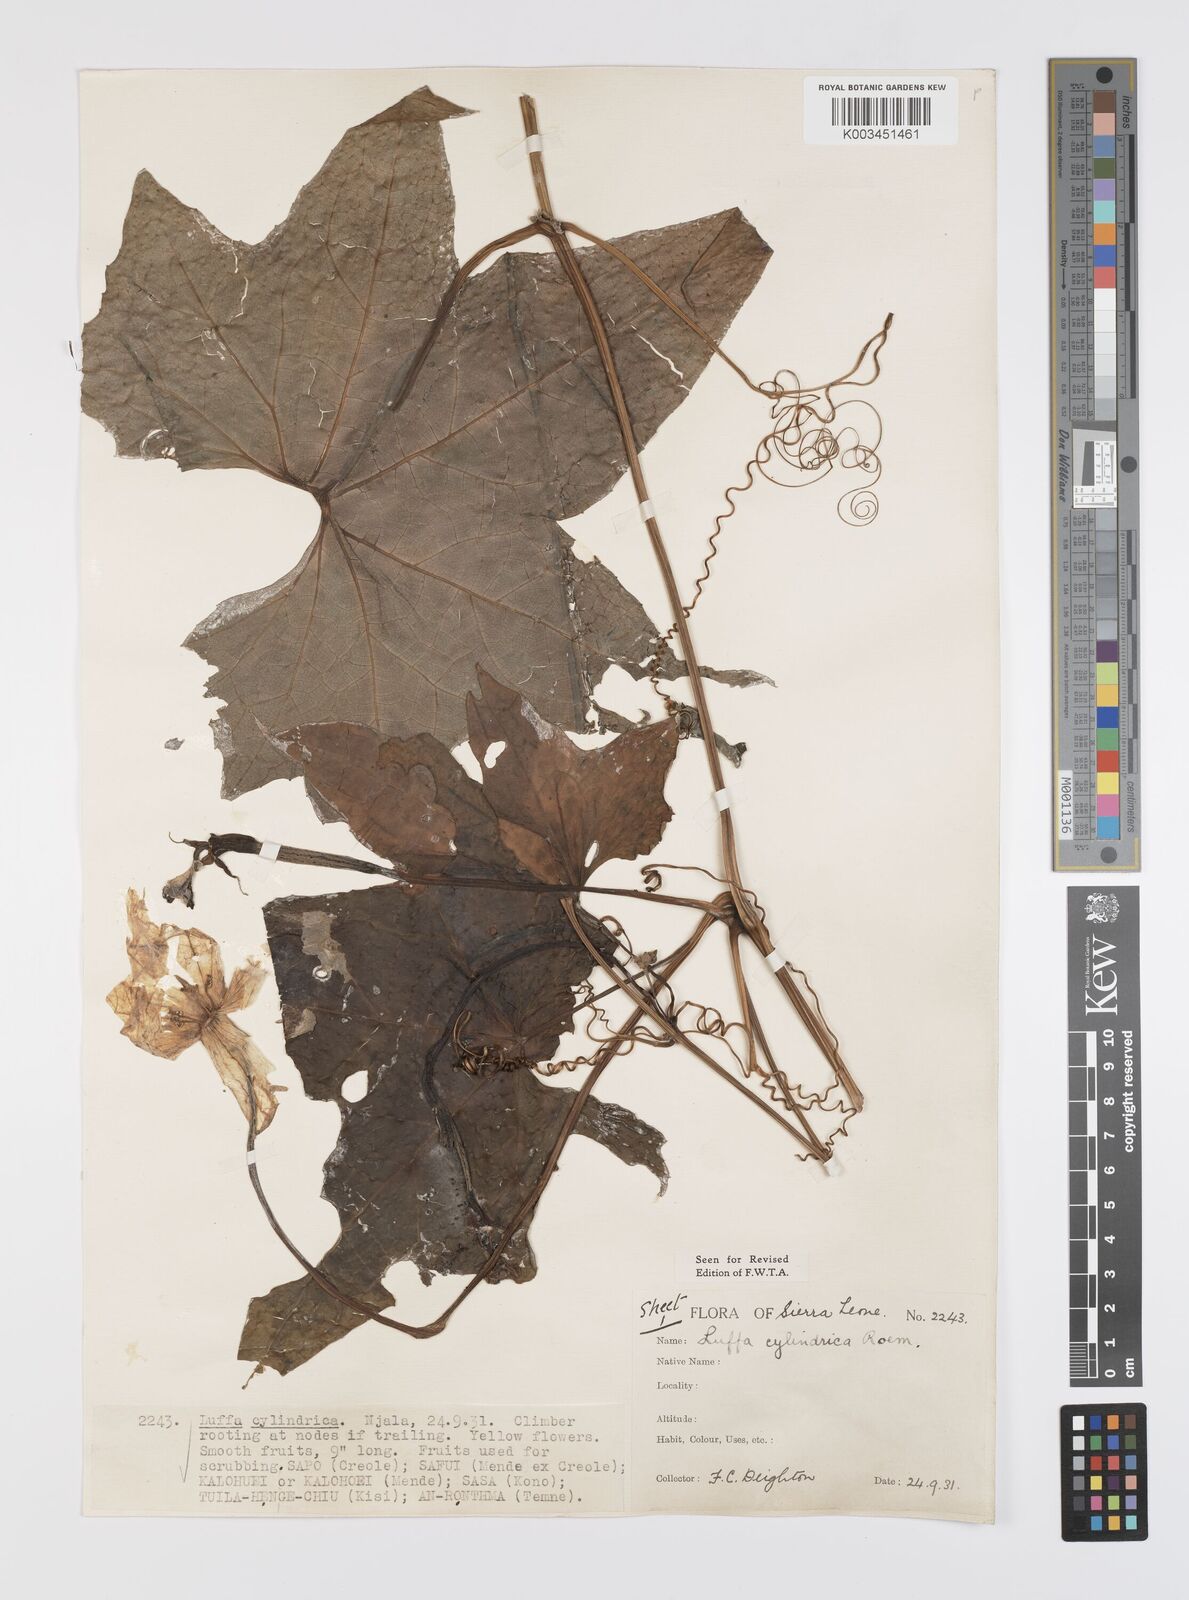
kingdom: Plantae
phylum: Tracheophyta
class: Magnoliopsida
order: Cucurbitales
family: Cucurbitaceae
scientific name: Cucurbitaceae
